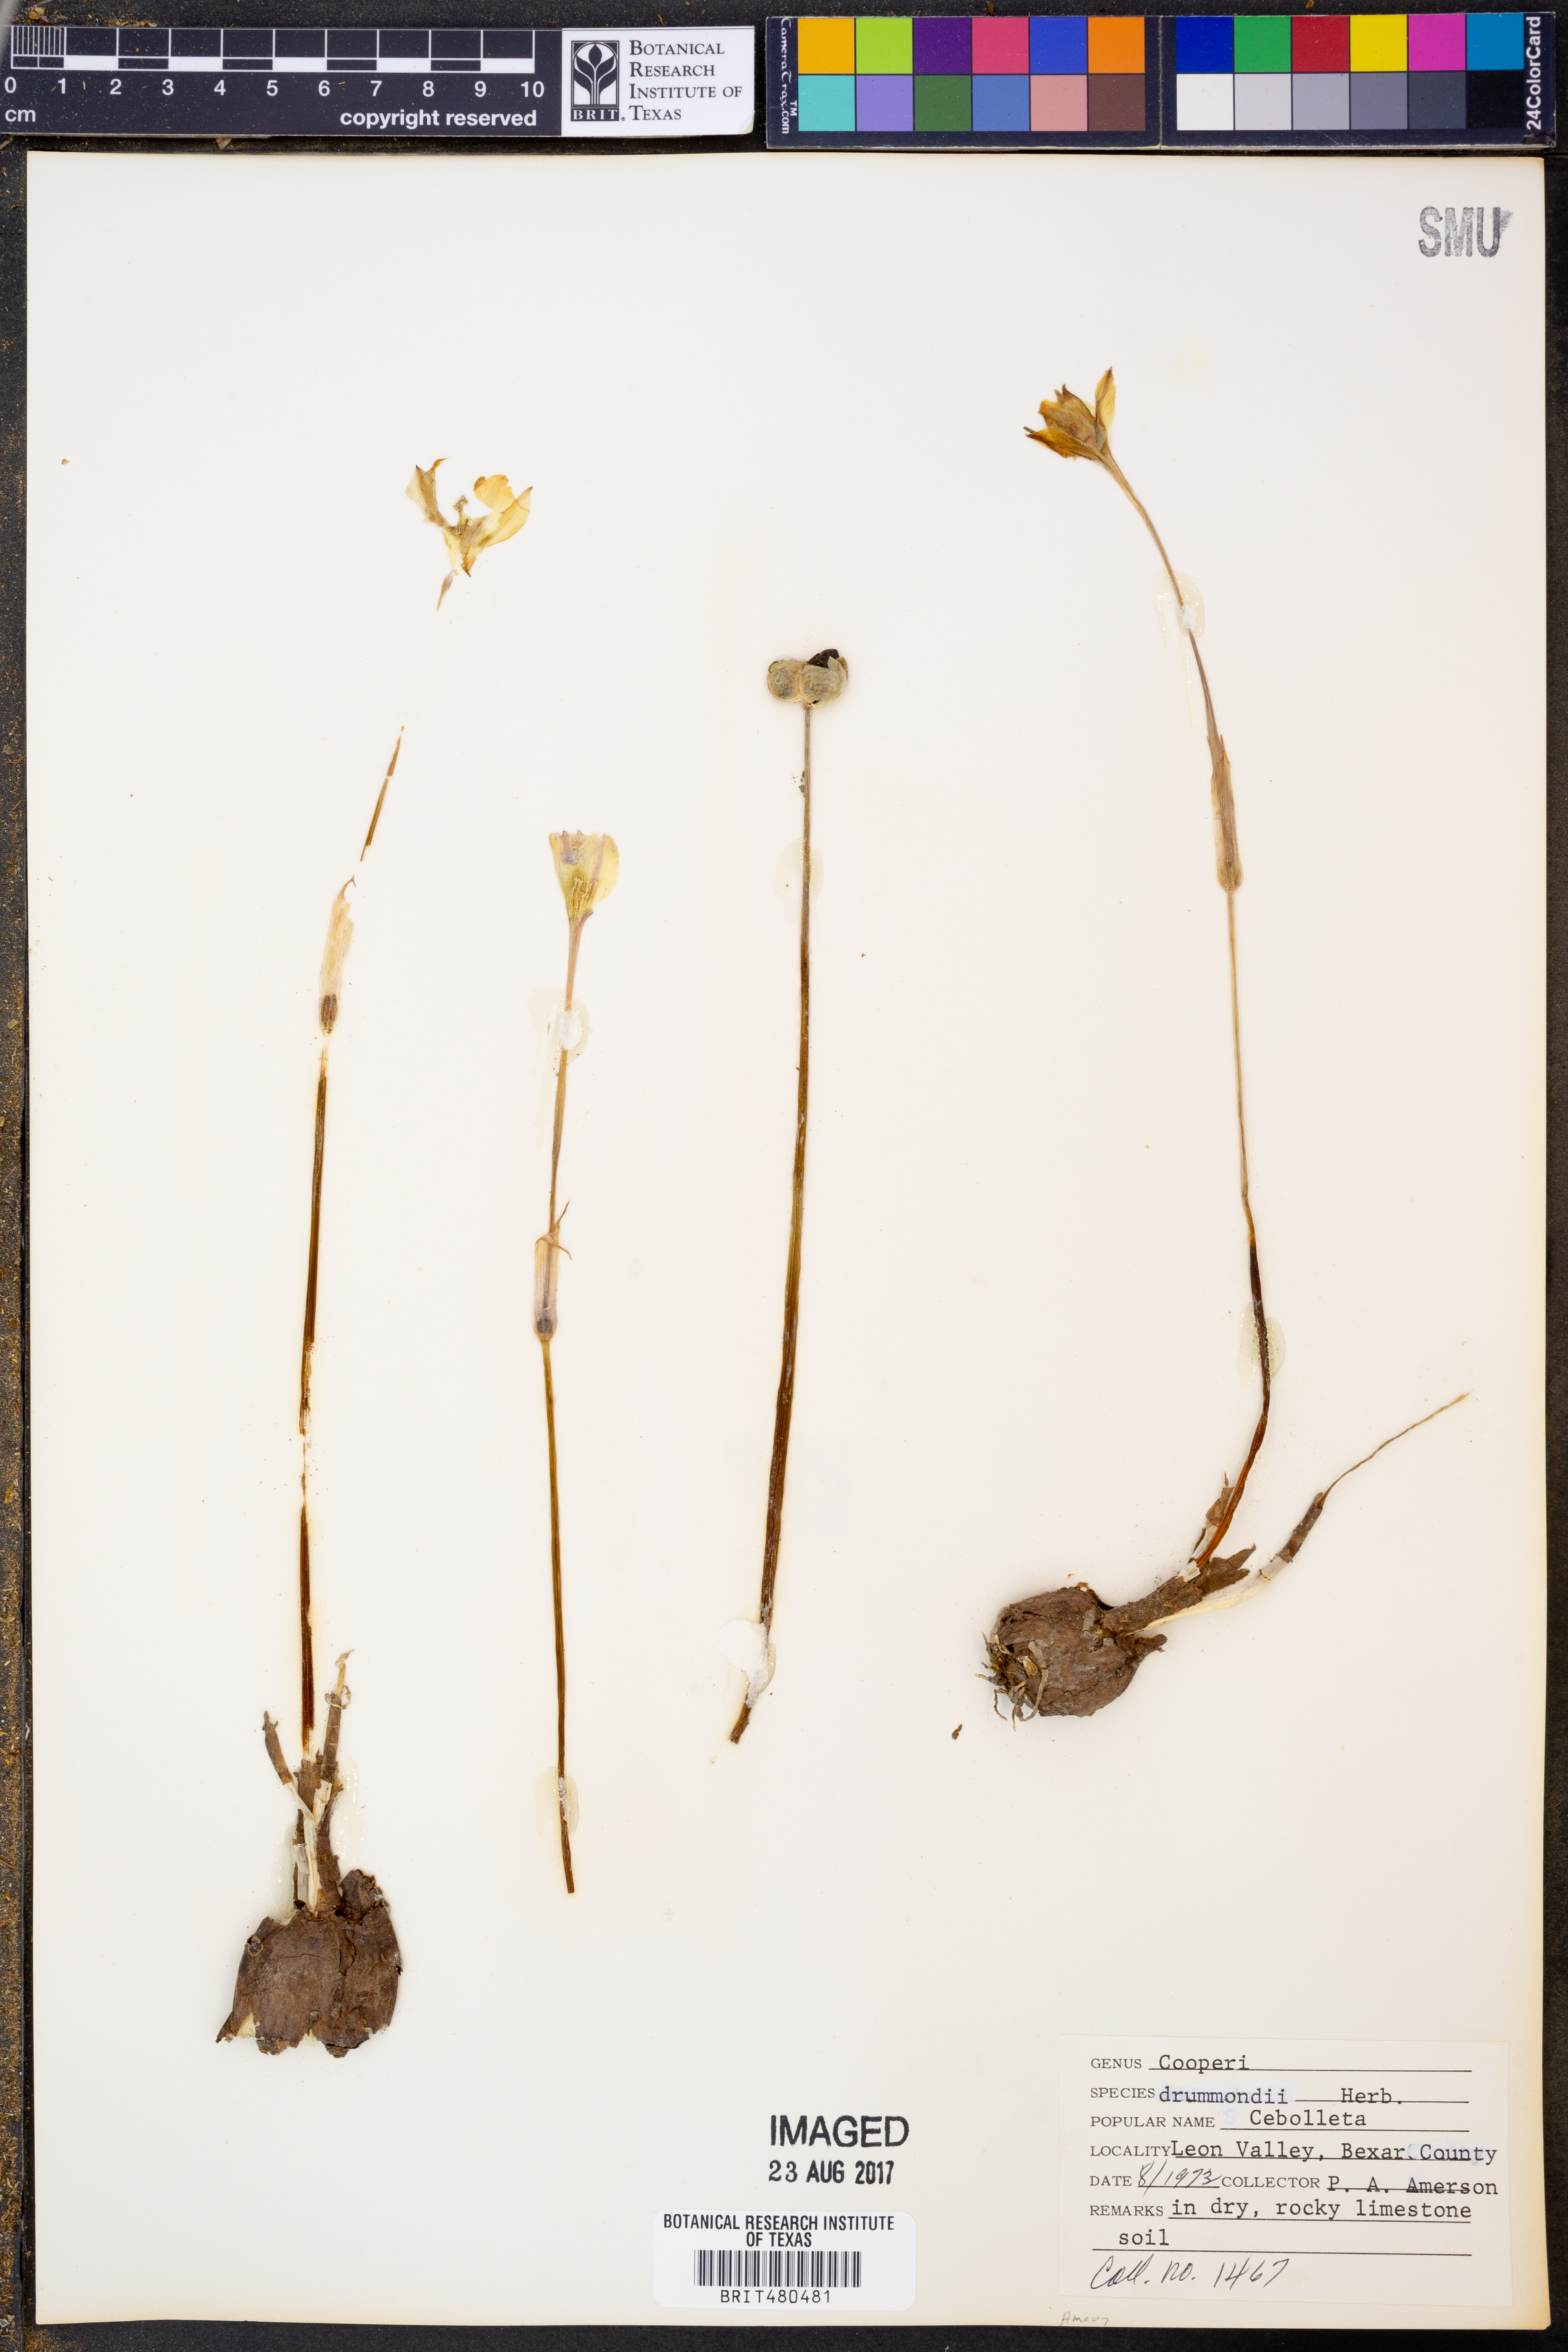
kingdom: Plantae
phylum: Tracheophyta
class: Liliopsida
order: Asparagales
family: Amaryllidaceae
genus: Zephyranthes
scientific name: Zephyranthes chlorosolen
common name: Evening rain-lily
